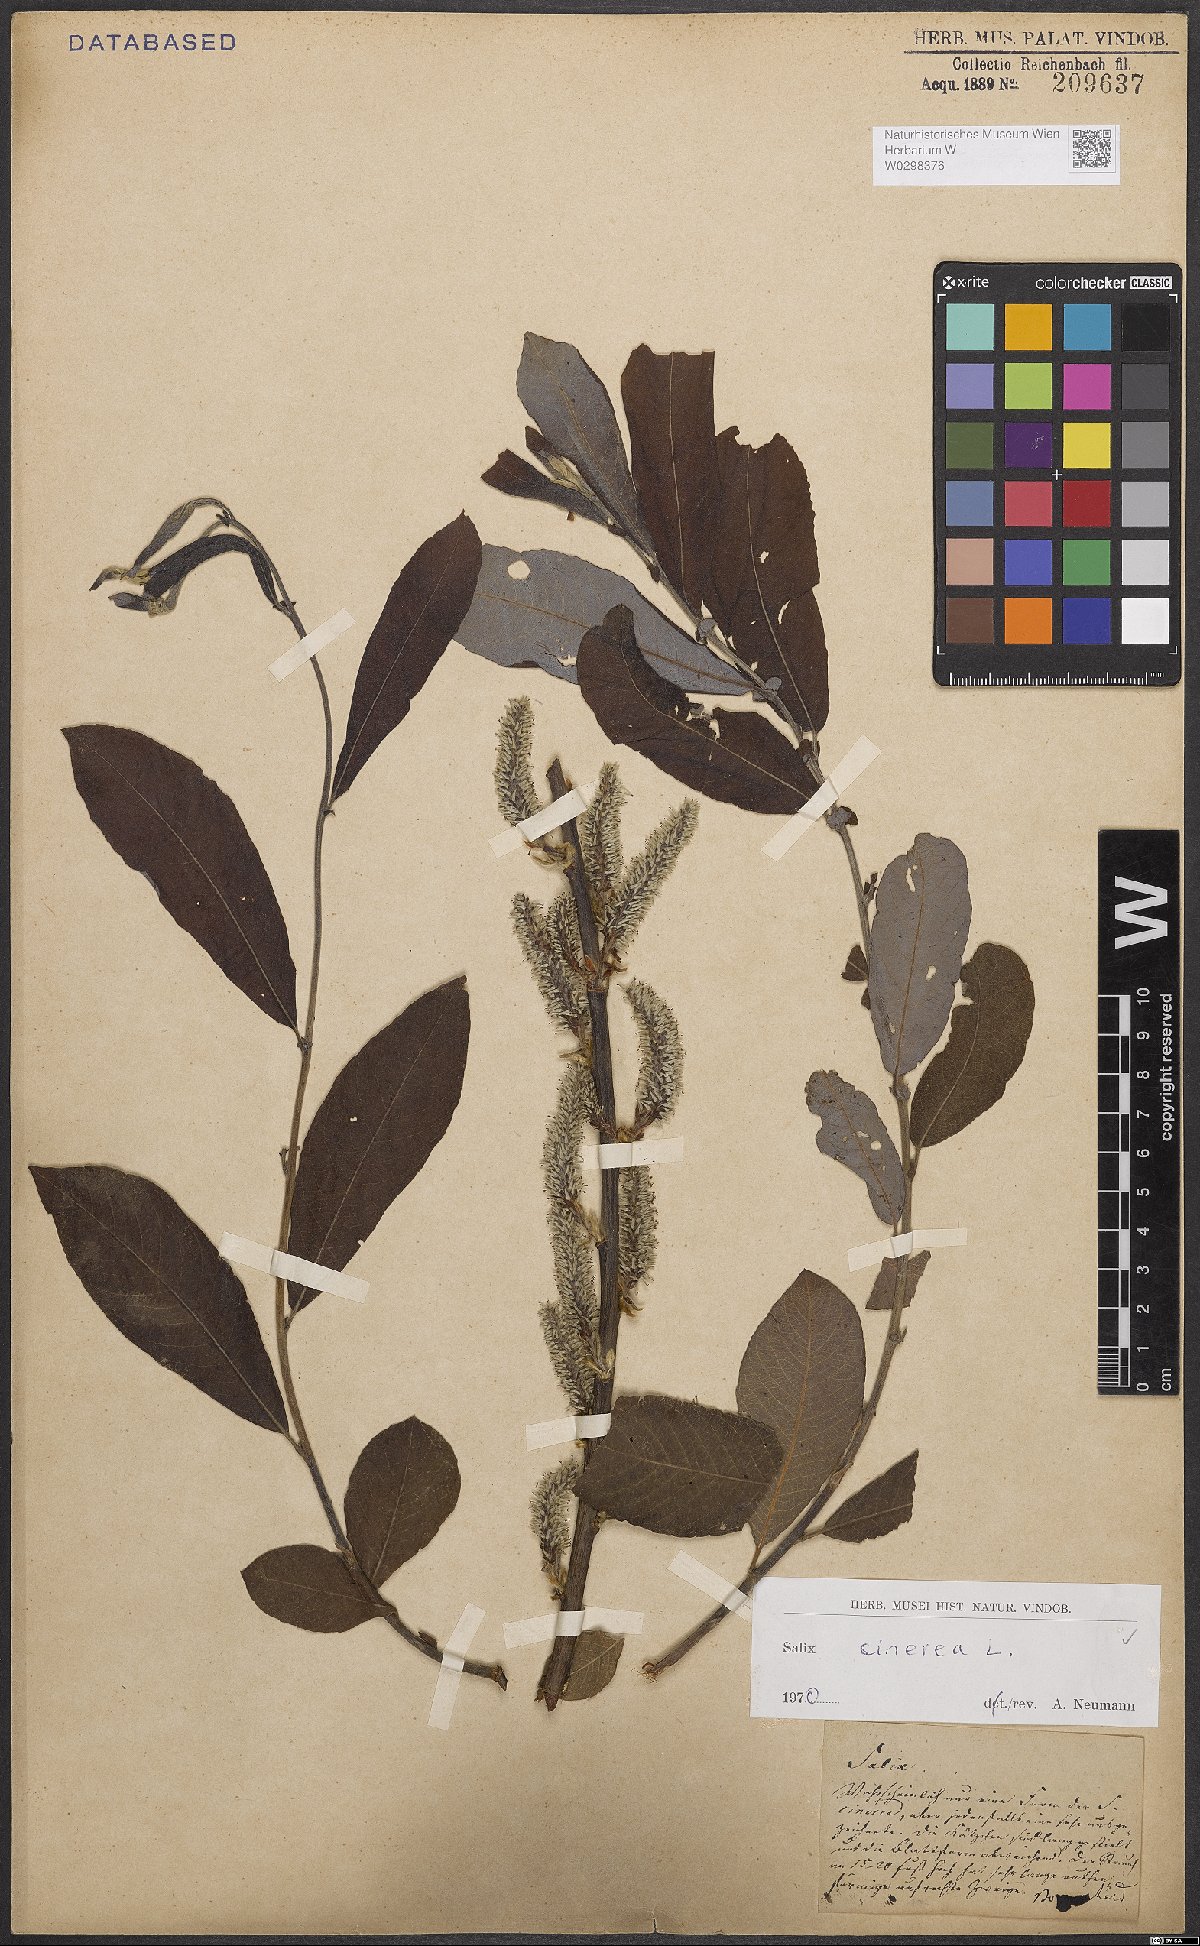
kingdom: Plantae
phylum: Tracheophyta
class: Magnoliopsida
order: Malpighiales
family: Salicaceae
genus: Salix
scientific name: Salix cinerea
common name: Common sallow
